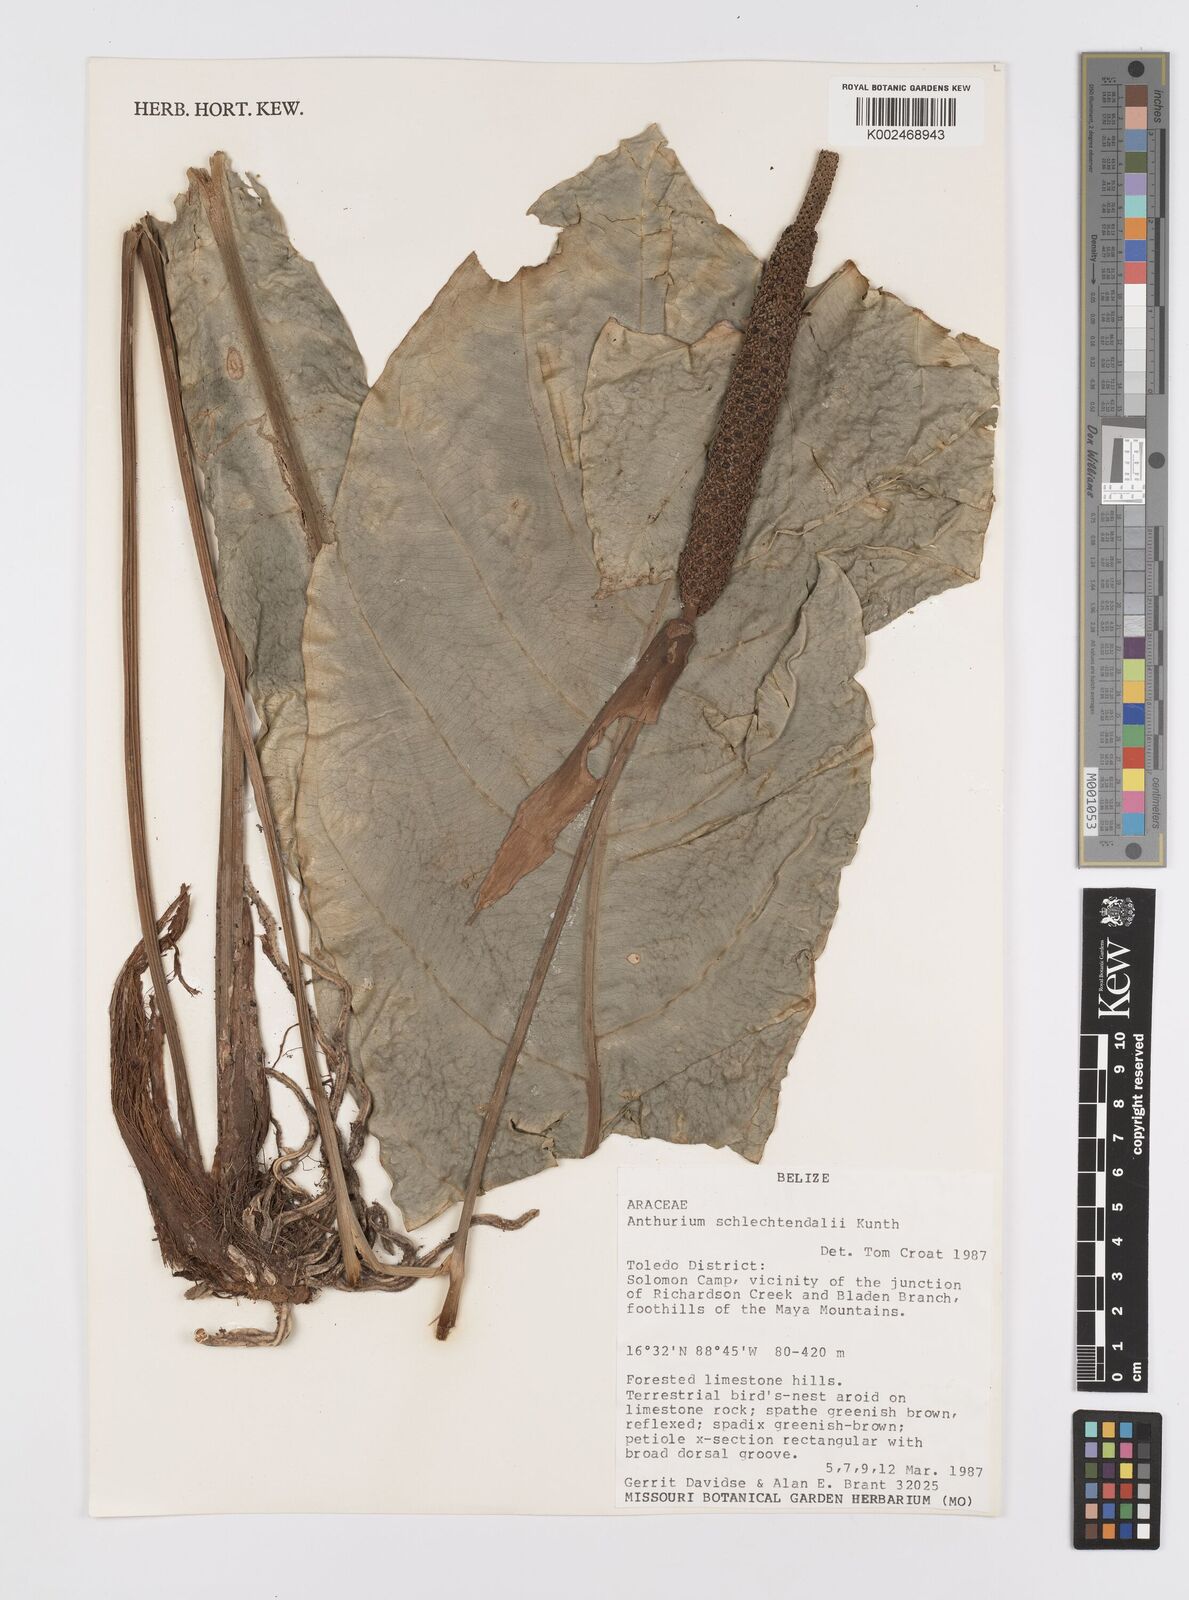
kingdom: Plantae
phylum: Tracheophyta
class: Liliopsida
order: Alismatales
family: Araceae
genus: Anthurium
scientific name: Anthurium schlechtendalii
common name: Laceleaf
